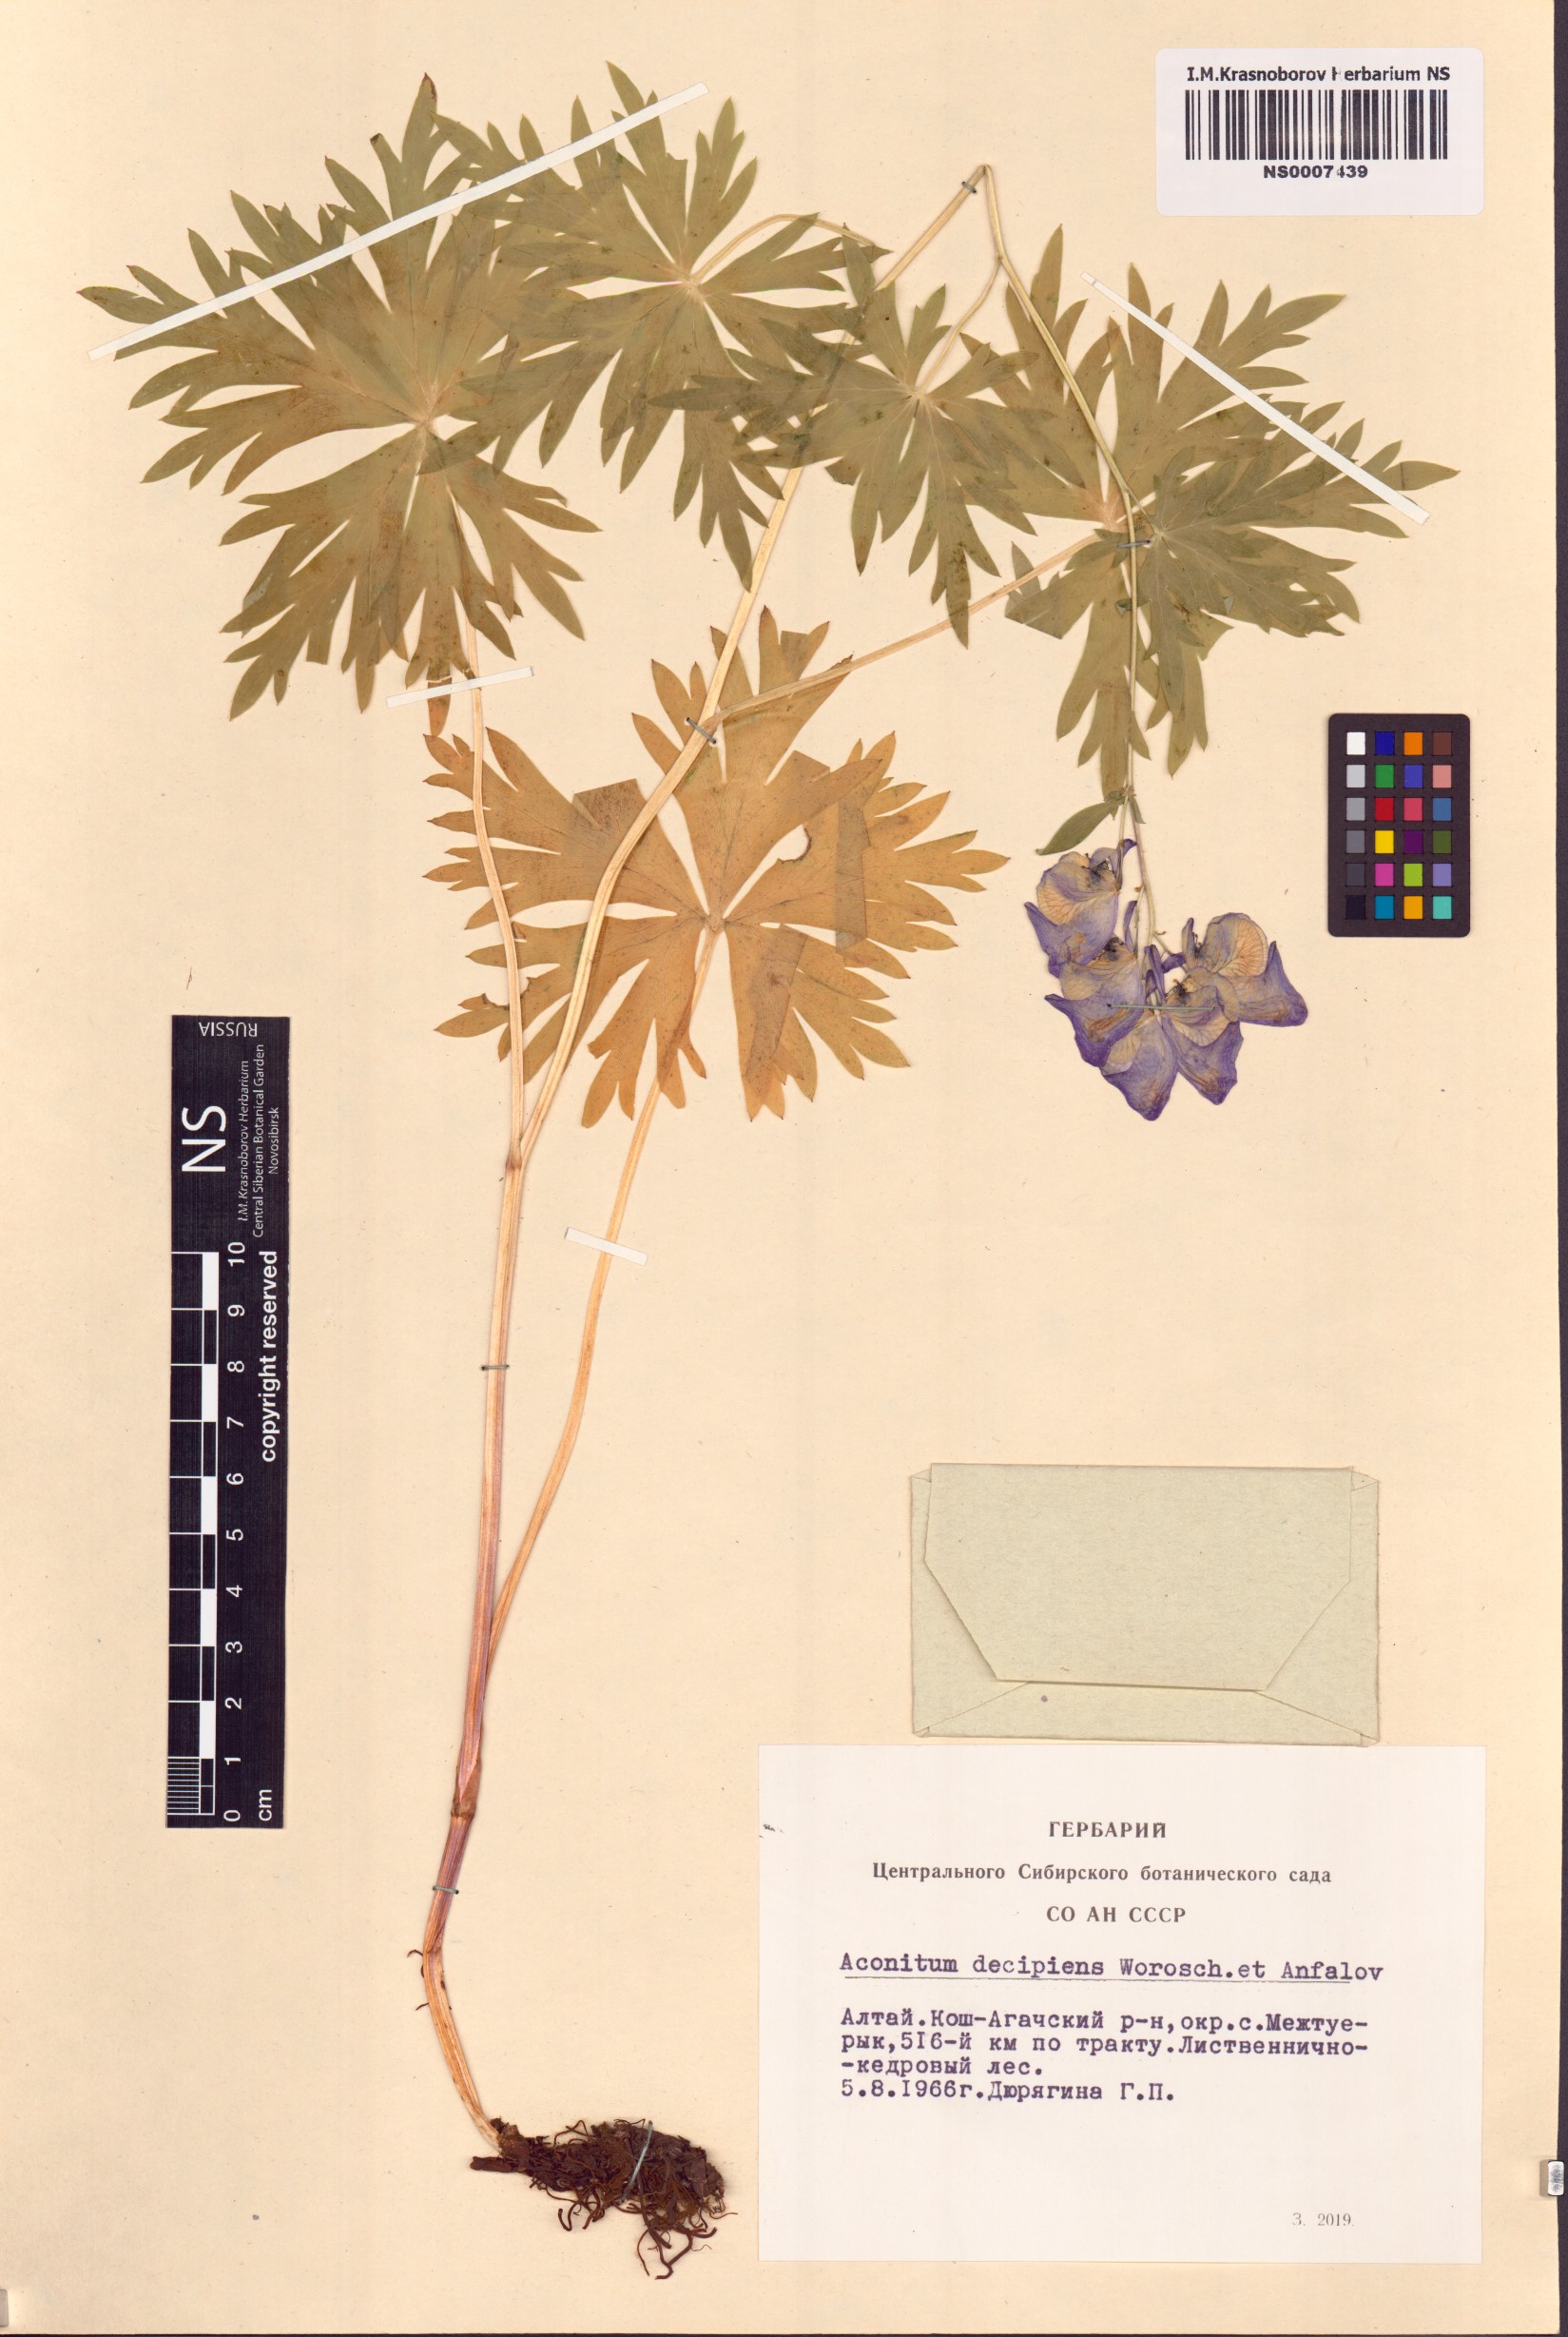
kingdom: Plantae
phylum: Tracheophyta
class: Magnoliopsida
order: Ranunculales
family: Ranunculaceae
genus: Aconitum
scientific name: Aconitum decipiens
